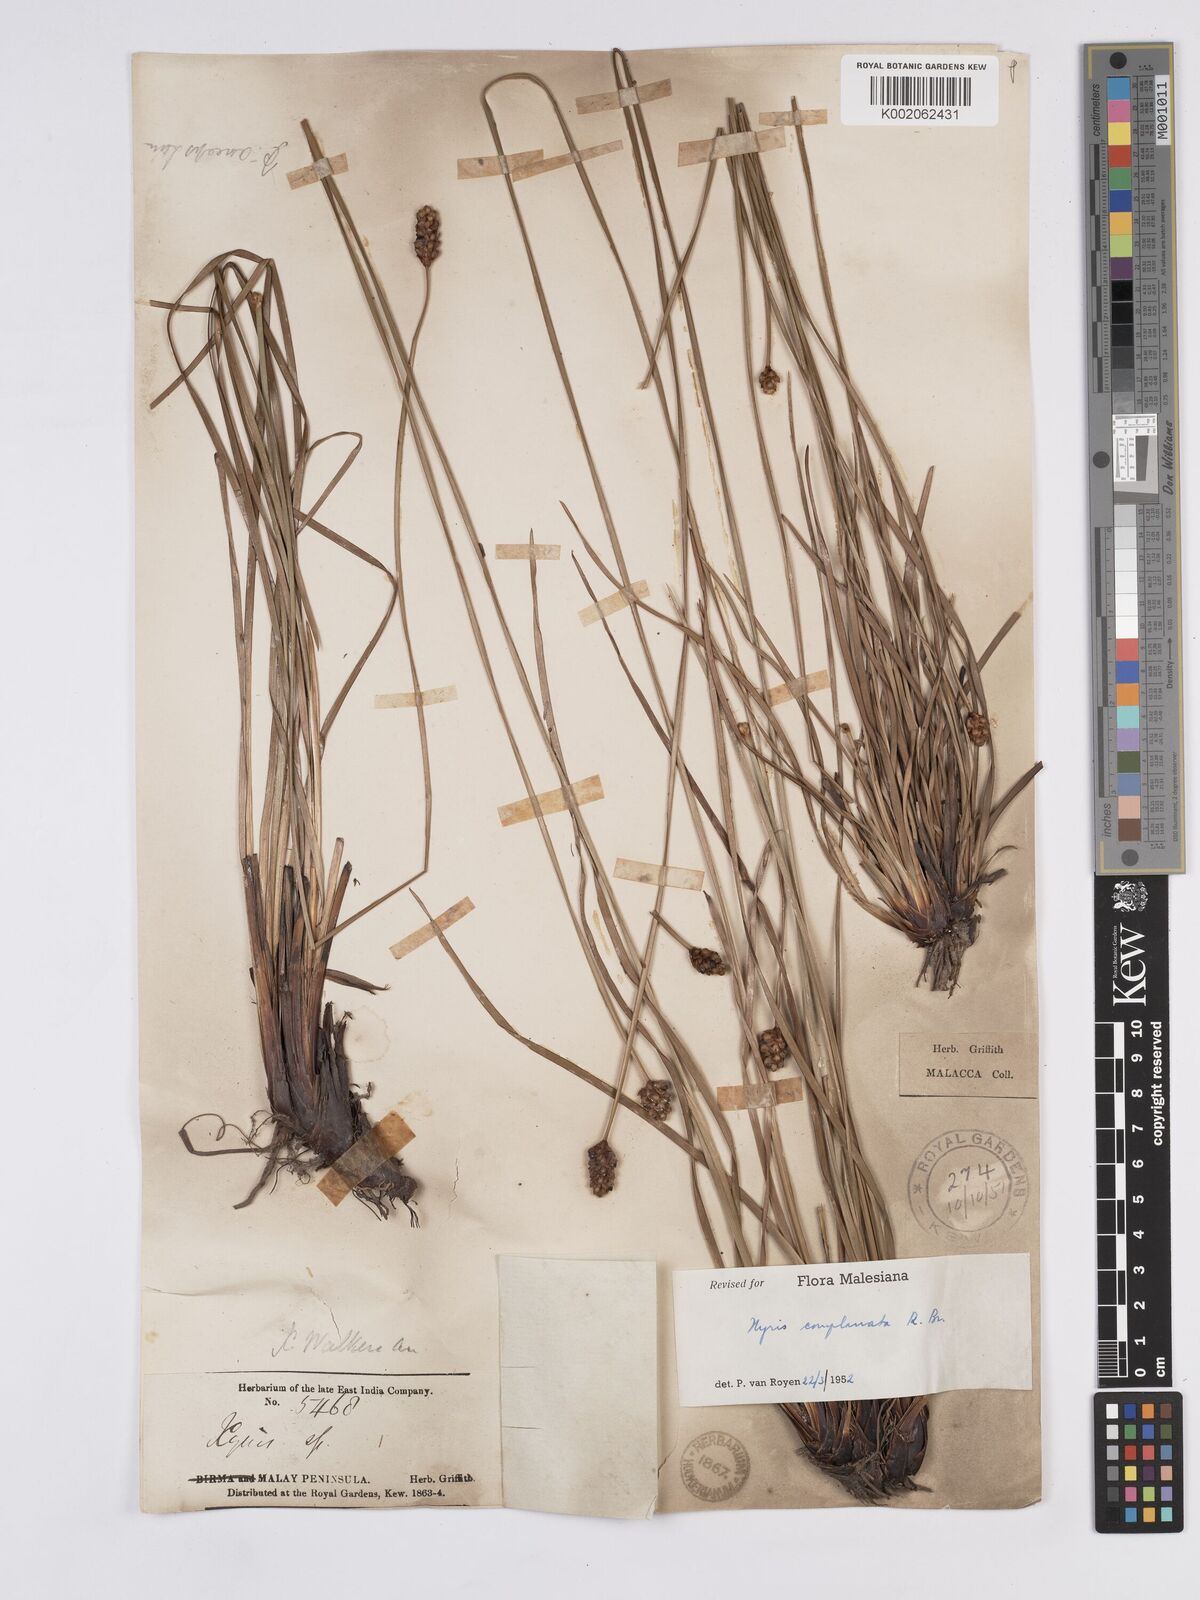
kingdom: Plantae
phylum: Tracheophyta
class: Liliopsida
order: Poales
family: Xyridaceae
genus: Xyris
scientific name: Xyris complanata
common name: Hawai'i yelloweyed grass
